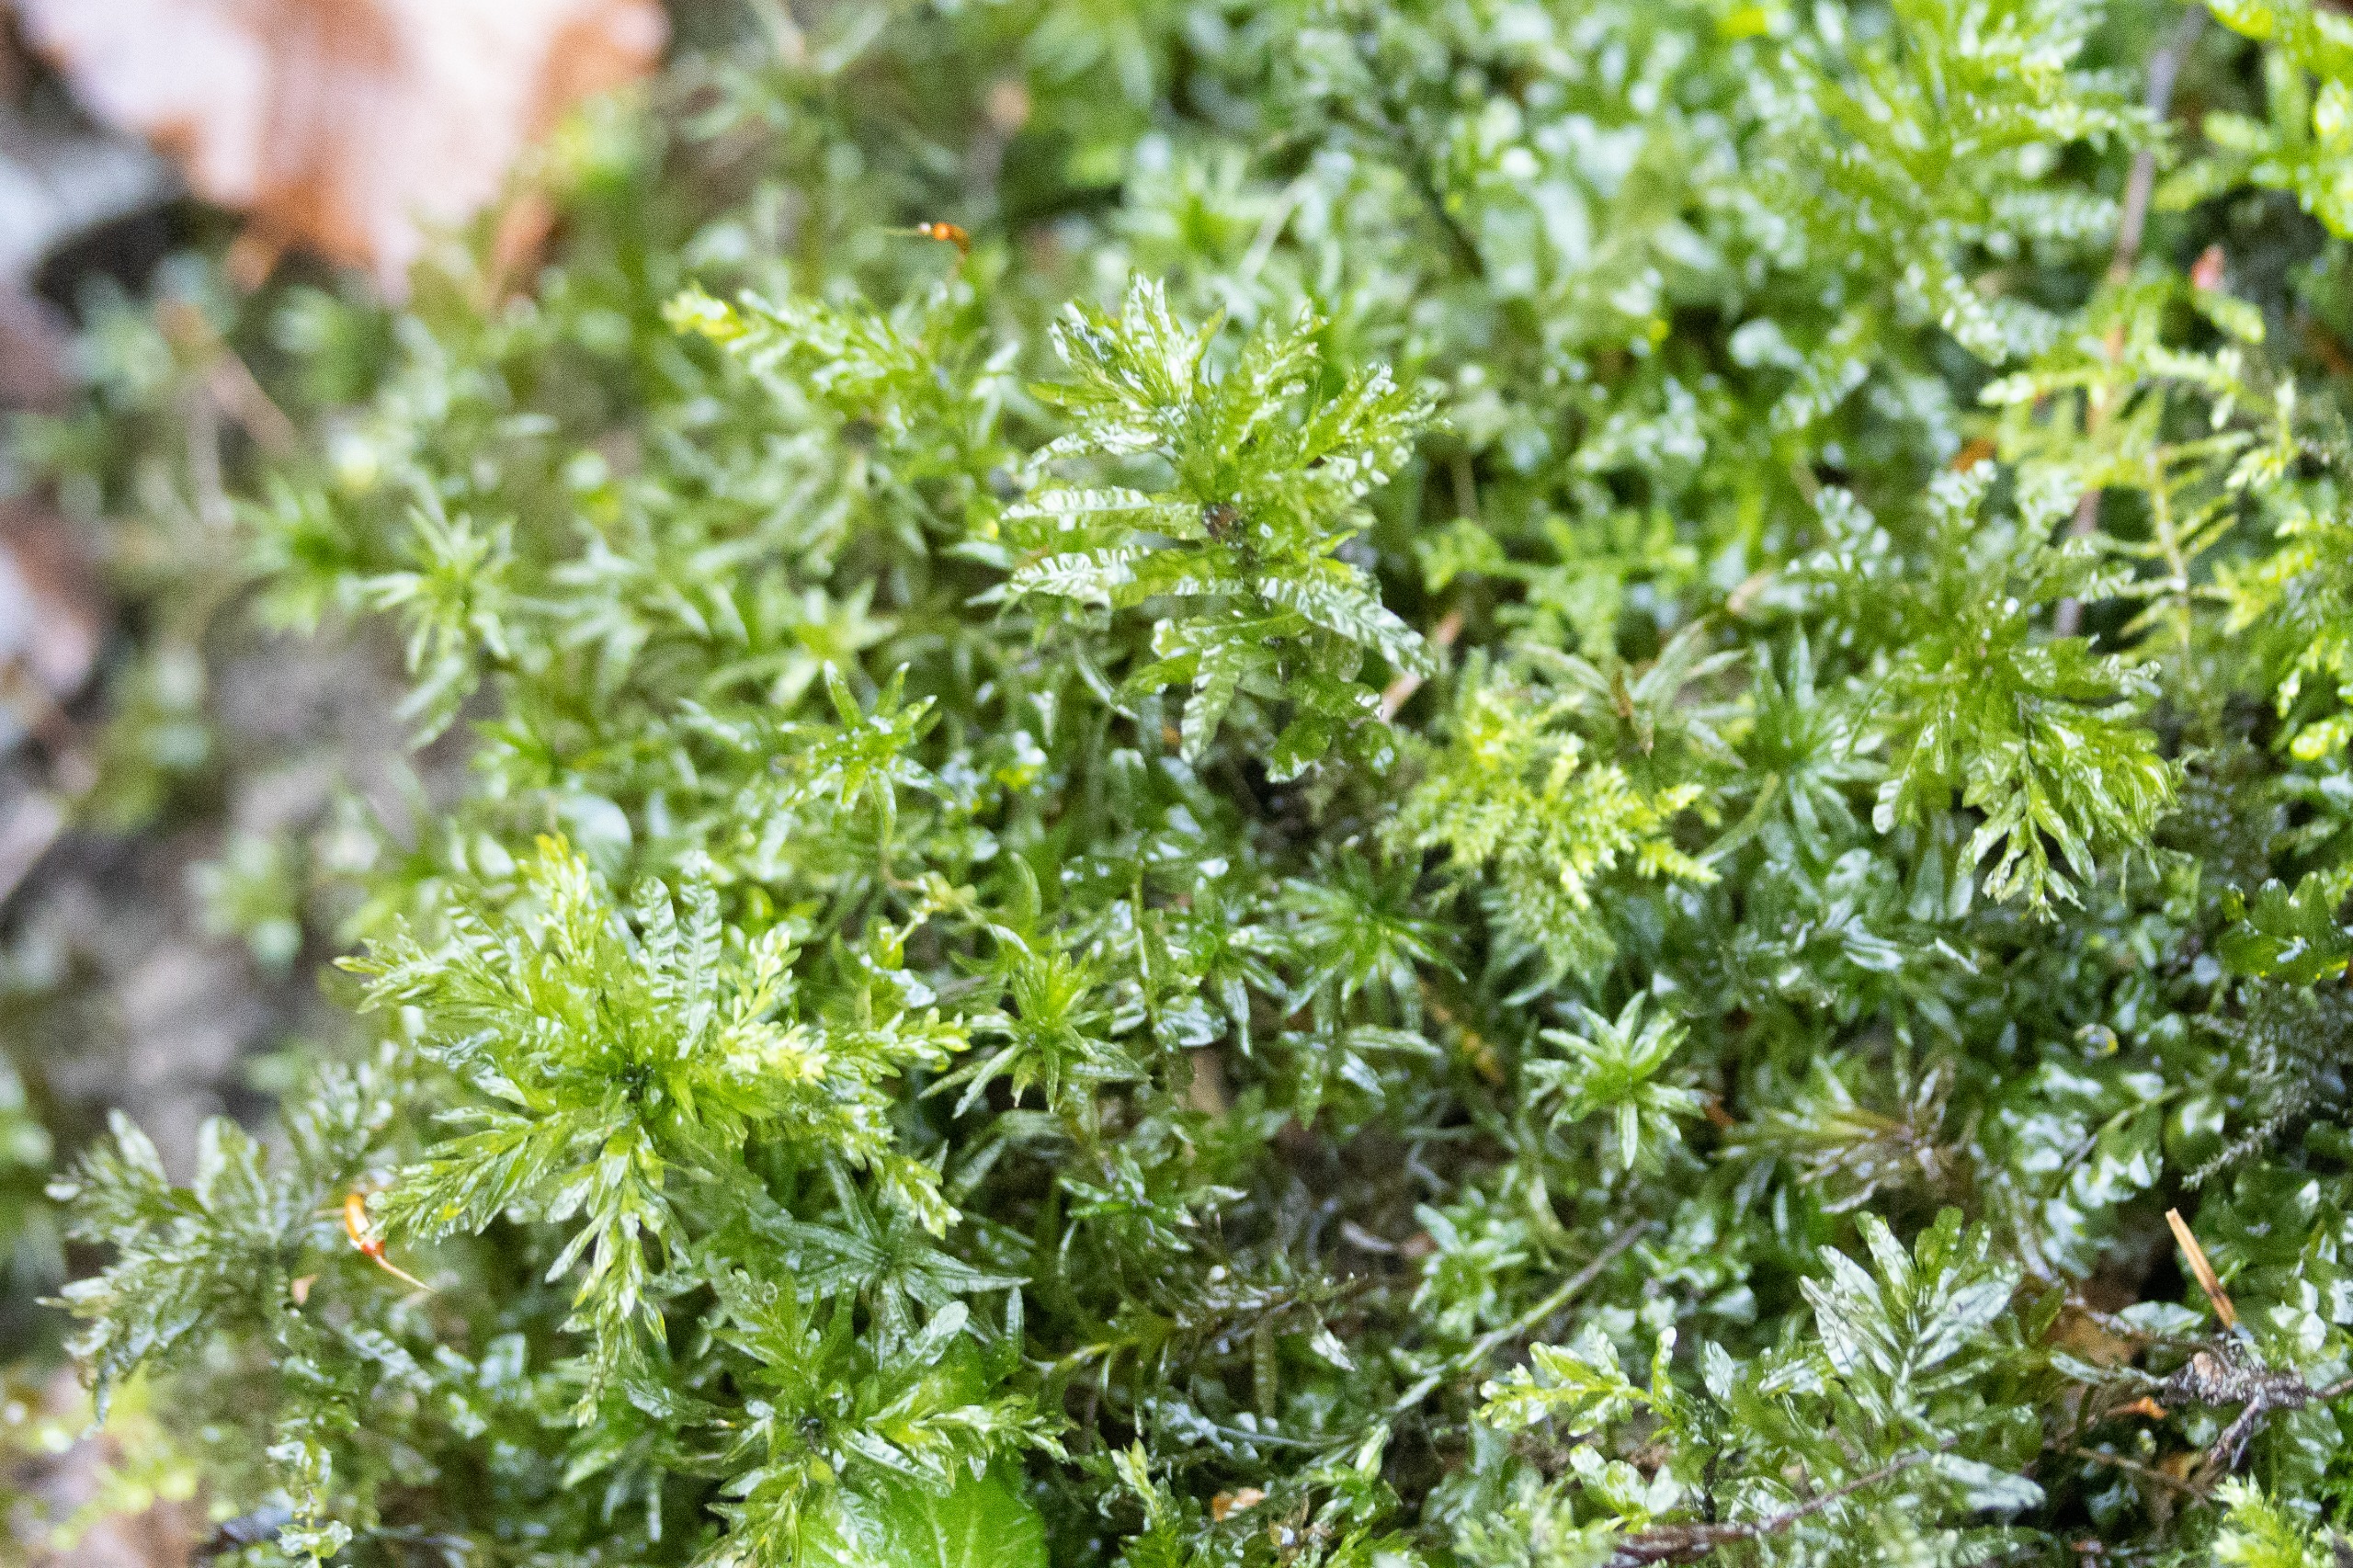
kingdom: Plantae
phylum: Bryophyta
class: Bryopsida
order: Bryales
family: Mniaceae
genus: Plagiomnium
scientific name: Plagiomnium undulatum
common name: Bølget krybstjerne
